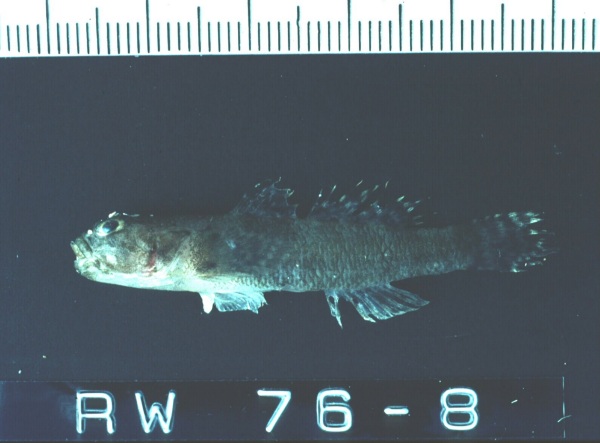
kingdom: Animalia
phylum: Chordata
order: Perciformes
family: Gobiidae
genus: Bathygobius
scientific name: Bathygobius fuscus
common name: Dusky frillgoby
